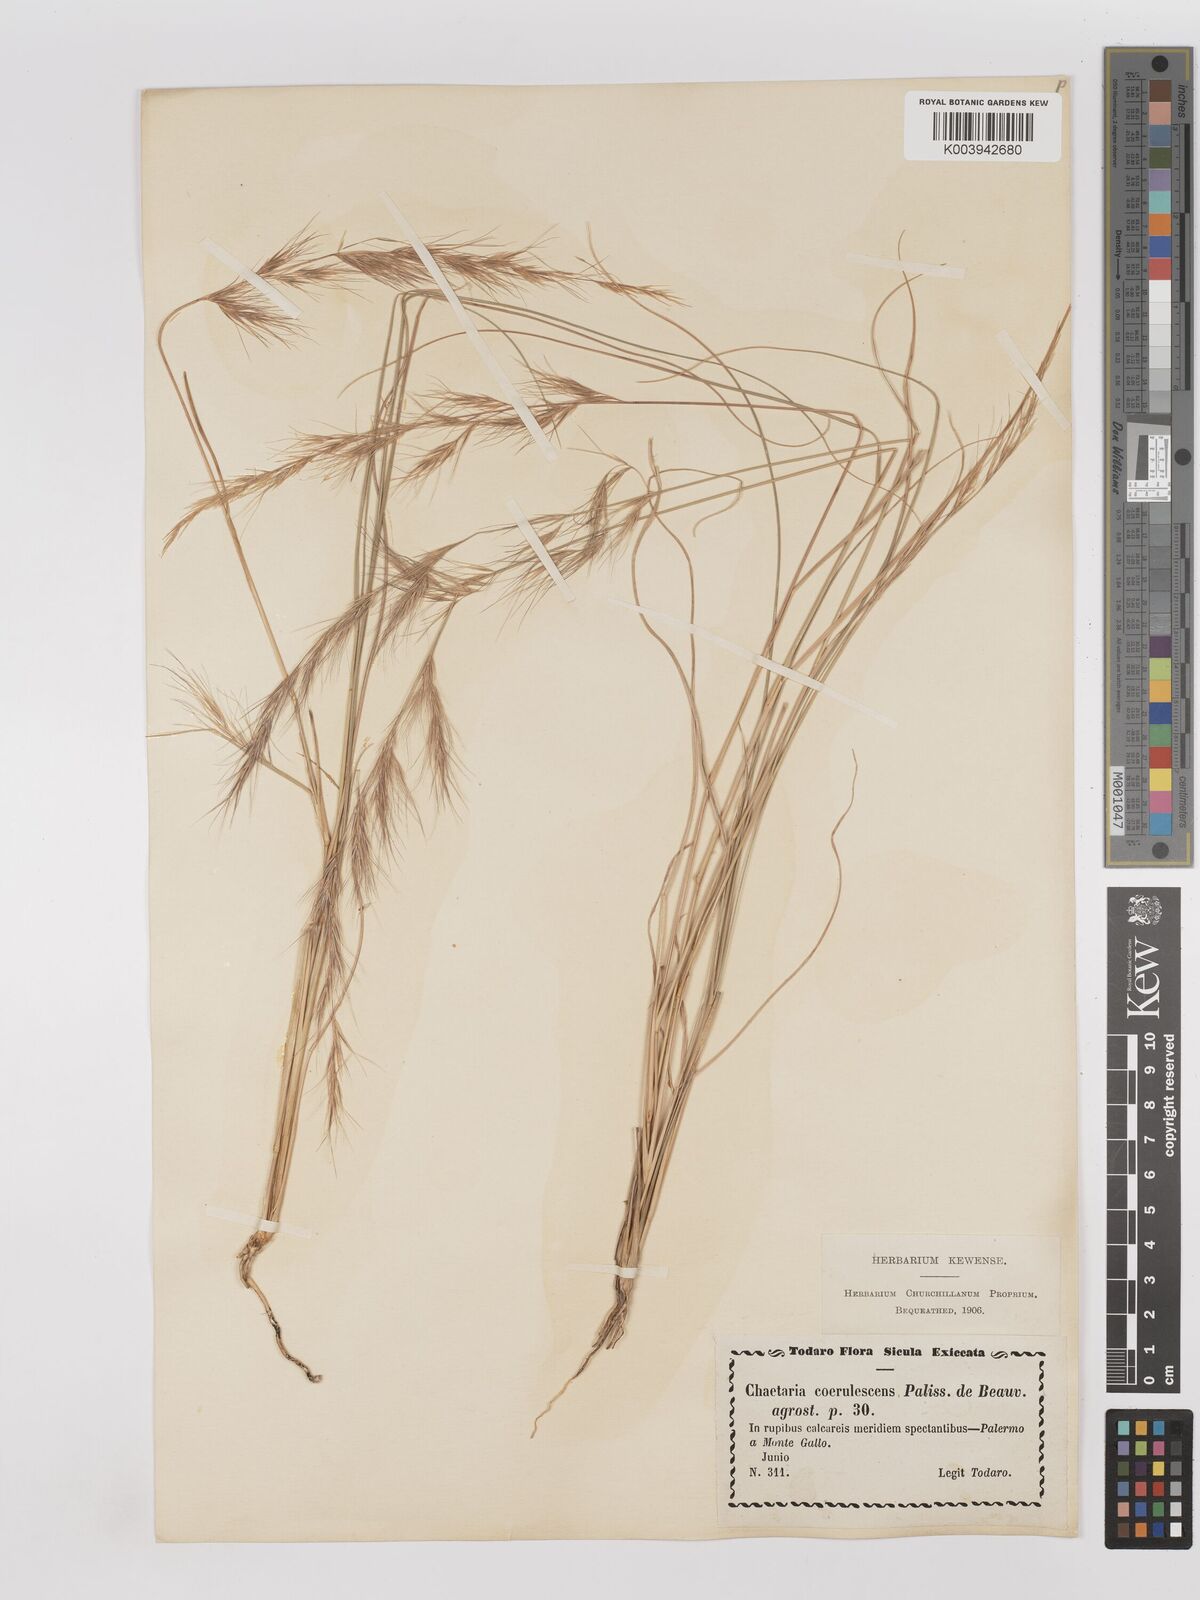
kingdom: Plantae
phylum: Tracheophyta
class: Liliopsida
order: Poales
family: Poaceae
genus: Aristida
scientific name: Aristida adscensionis
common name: Sixweeks threeawn
